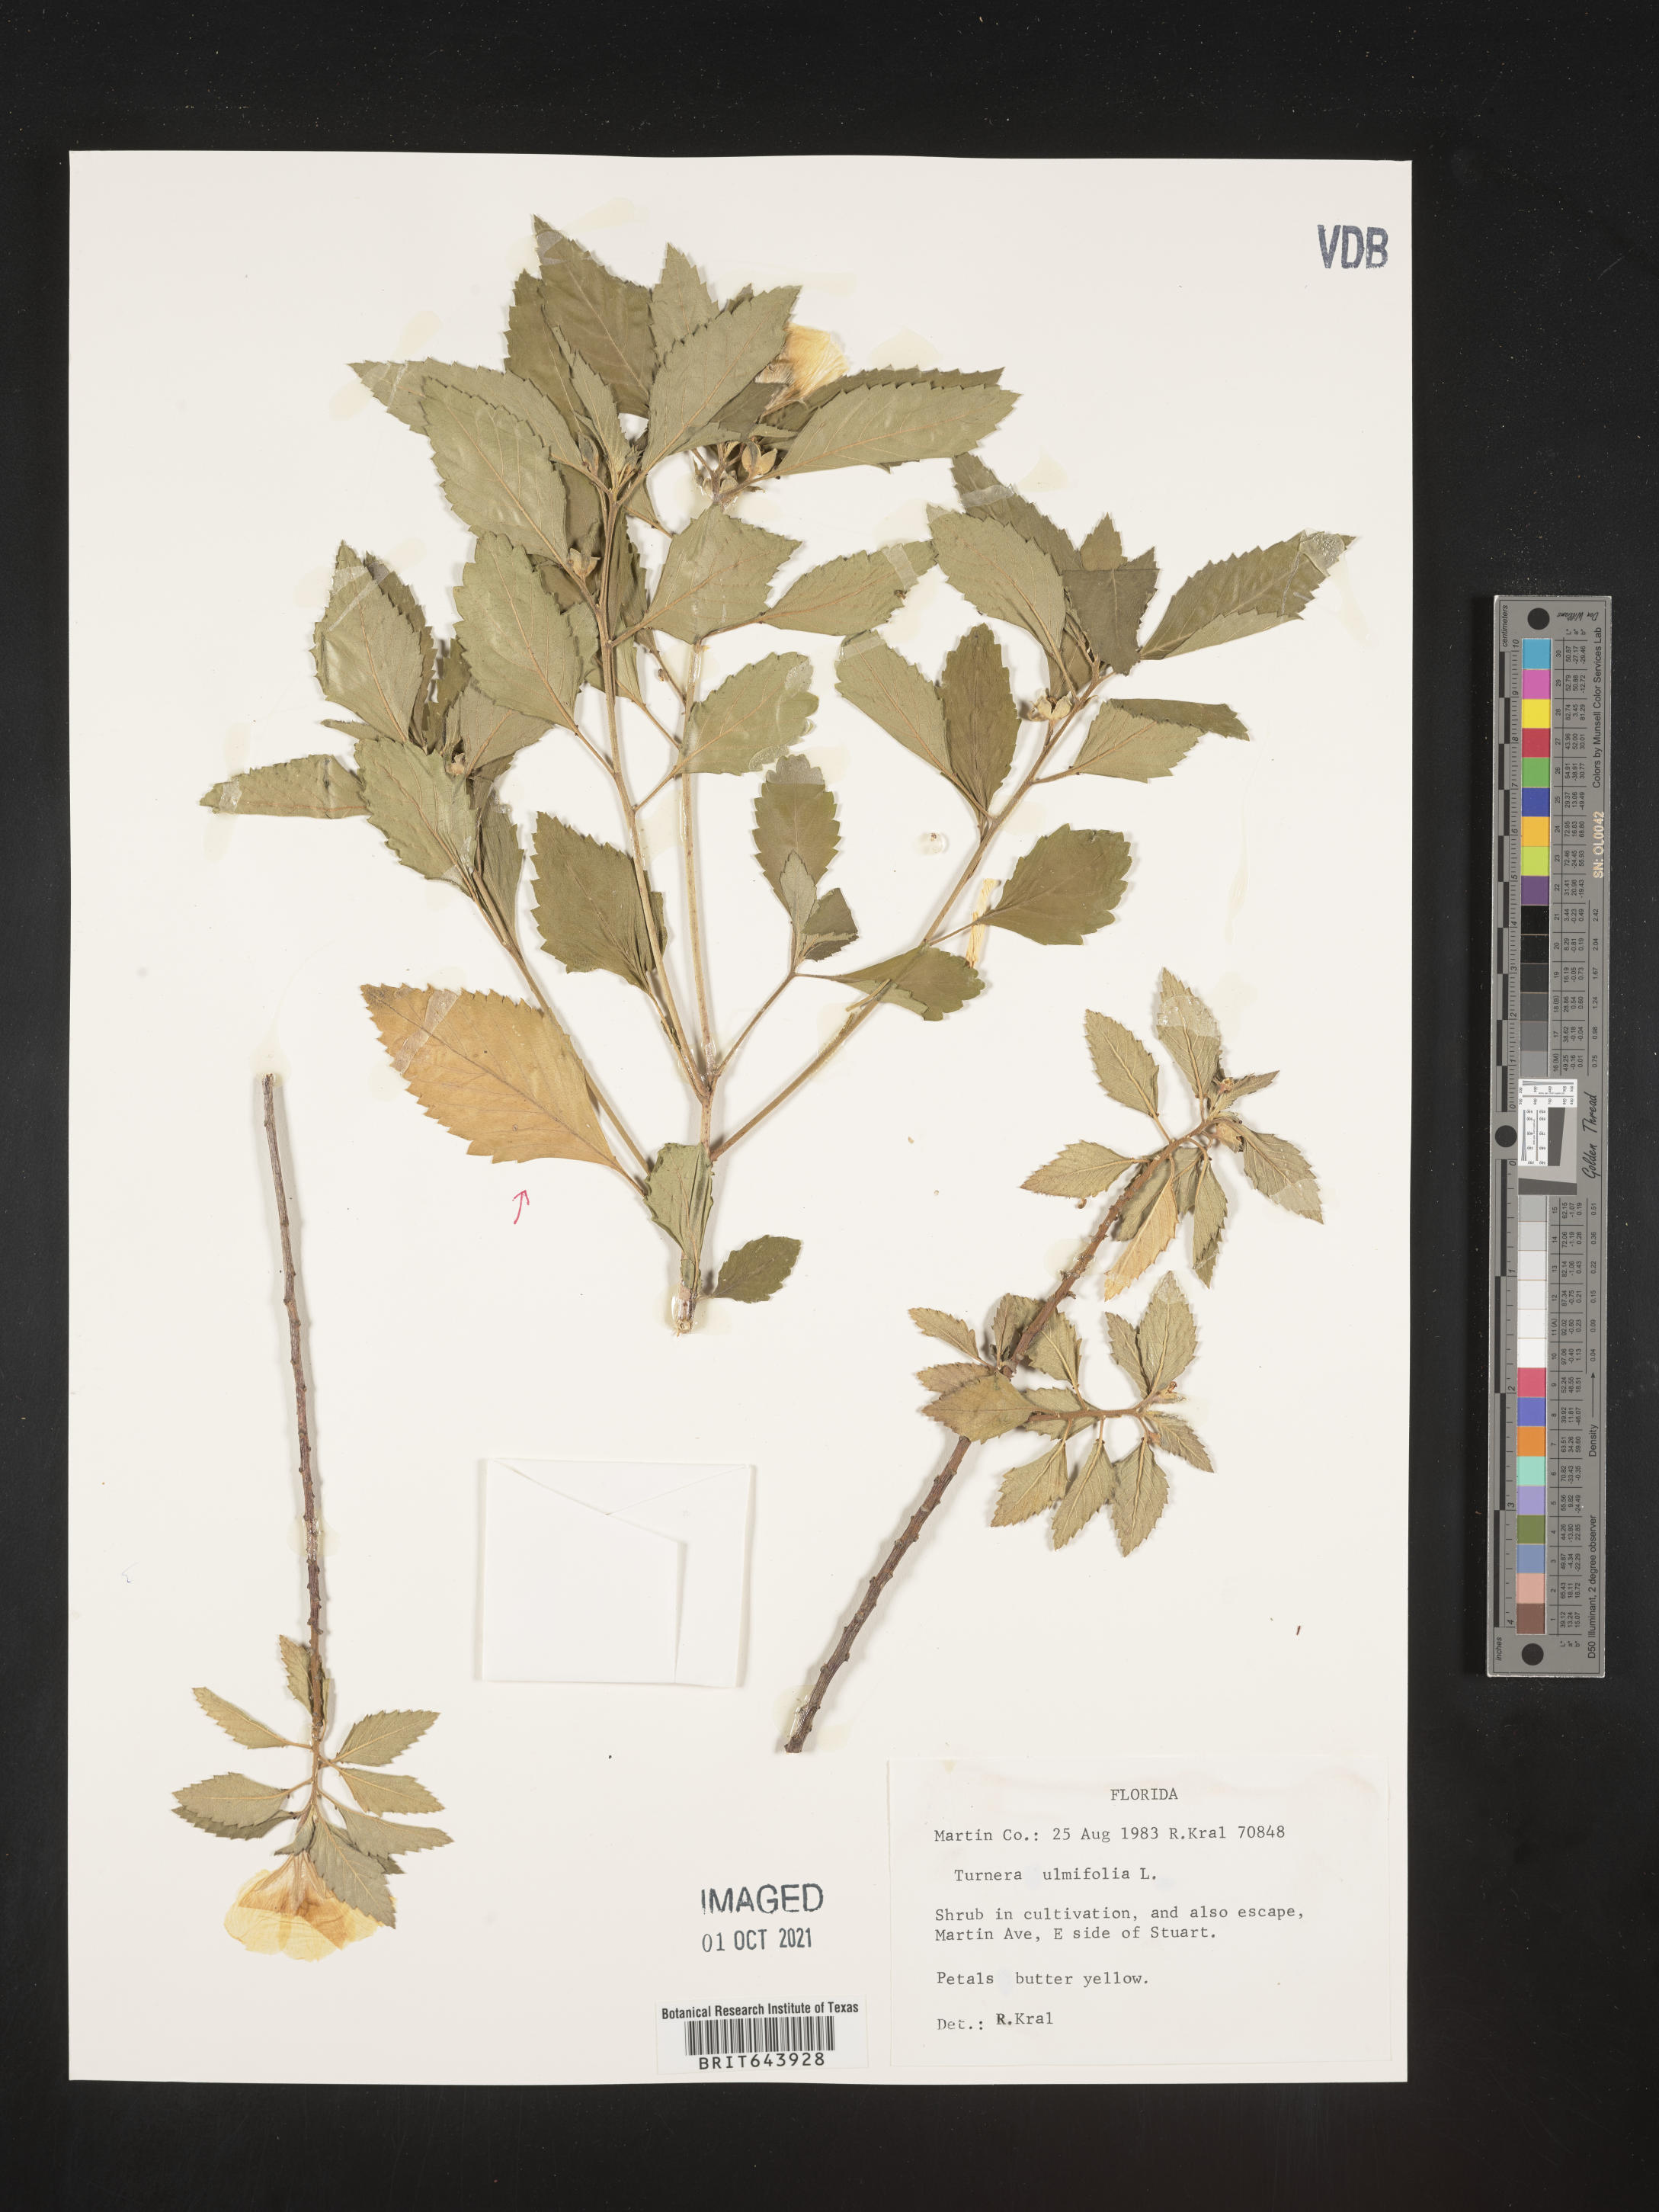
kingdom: Plantae
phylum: Tracheophyta
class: Magnoliopsida
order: Malpighiales
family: Turneraceae
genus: Turnera
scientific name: Turnera
